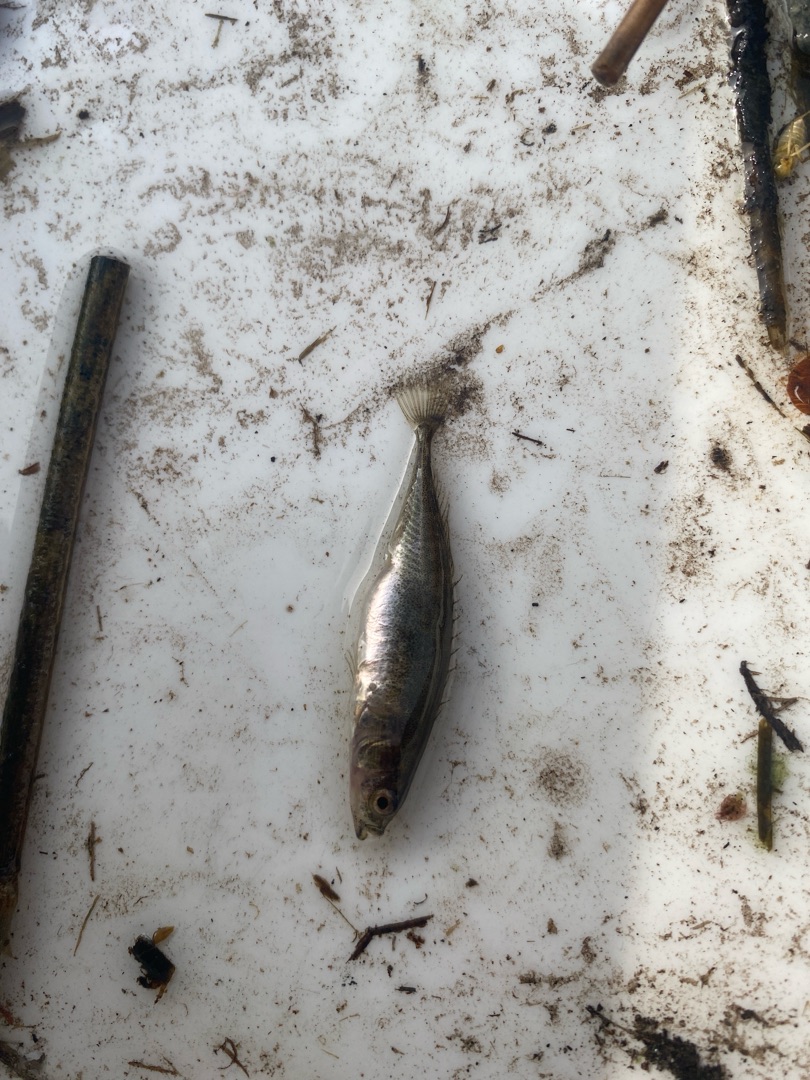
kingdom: Animalia
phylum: Chordata
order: Gasterosteiformes
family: Gasterosteidae
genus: Pungitius
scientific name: Pungitius pungitius
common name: Nipigget hundestejle
